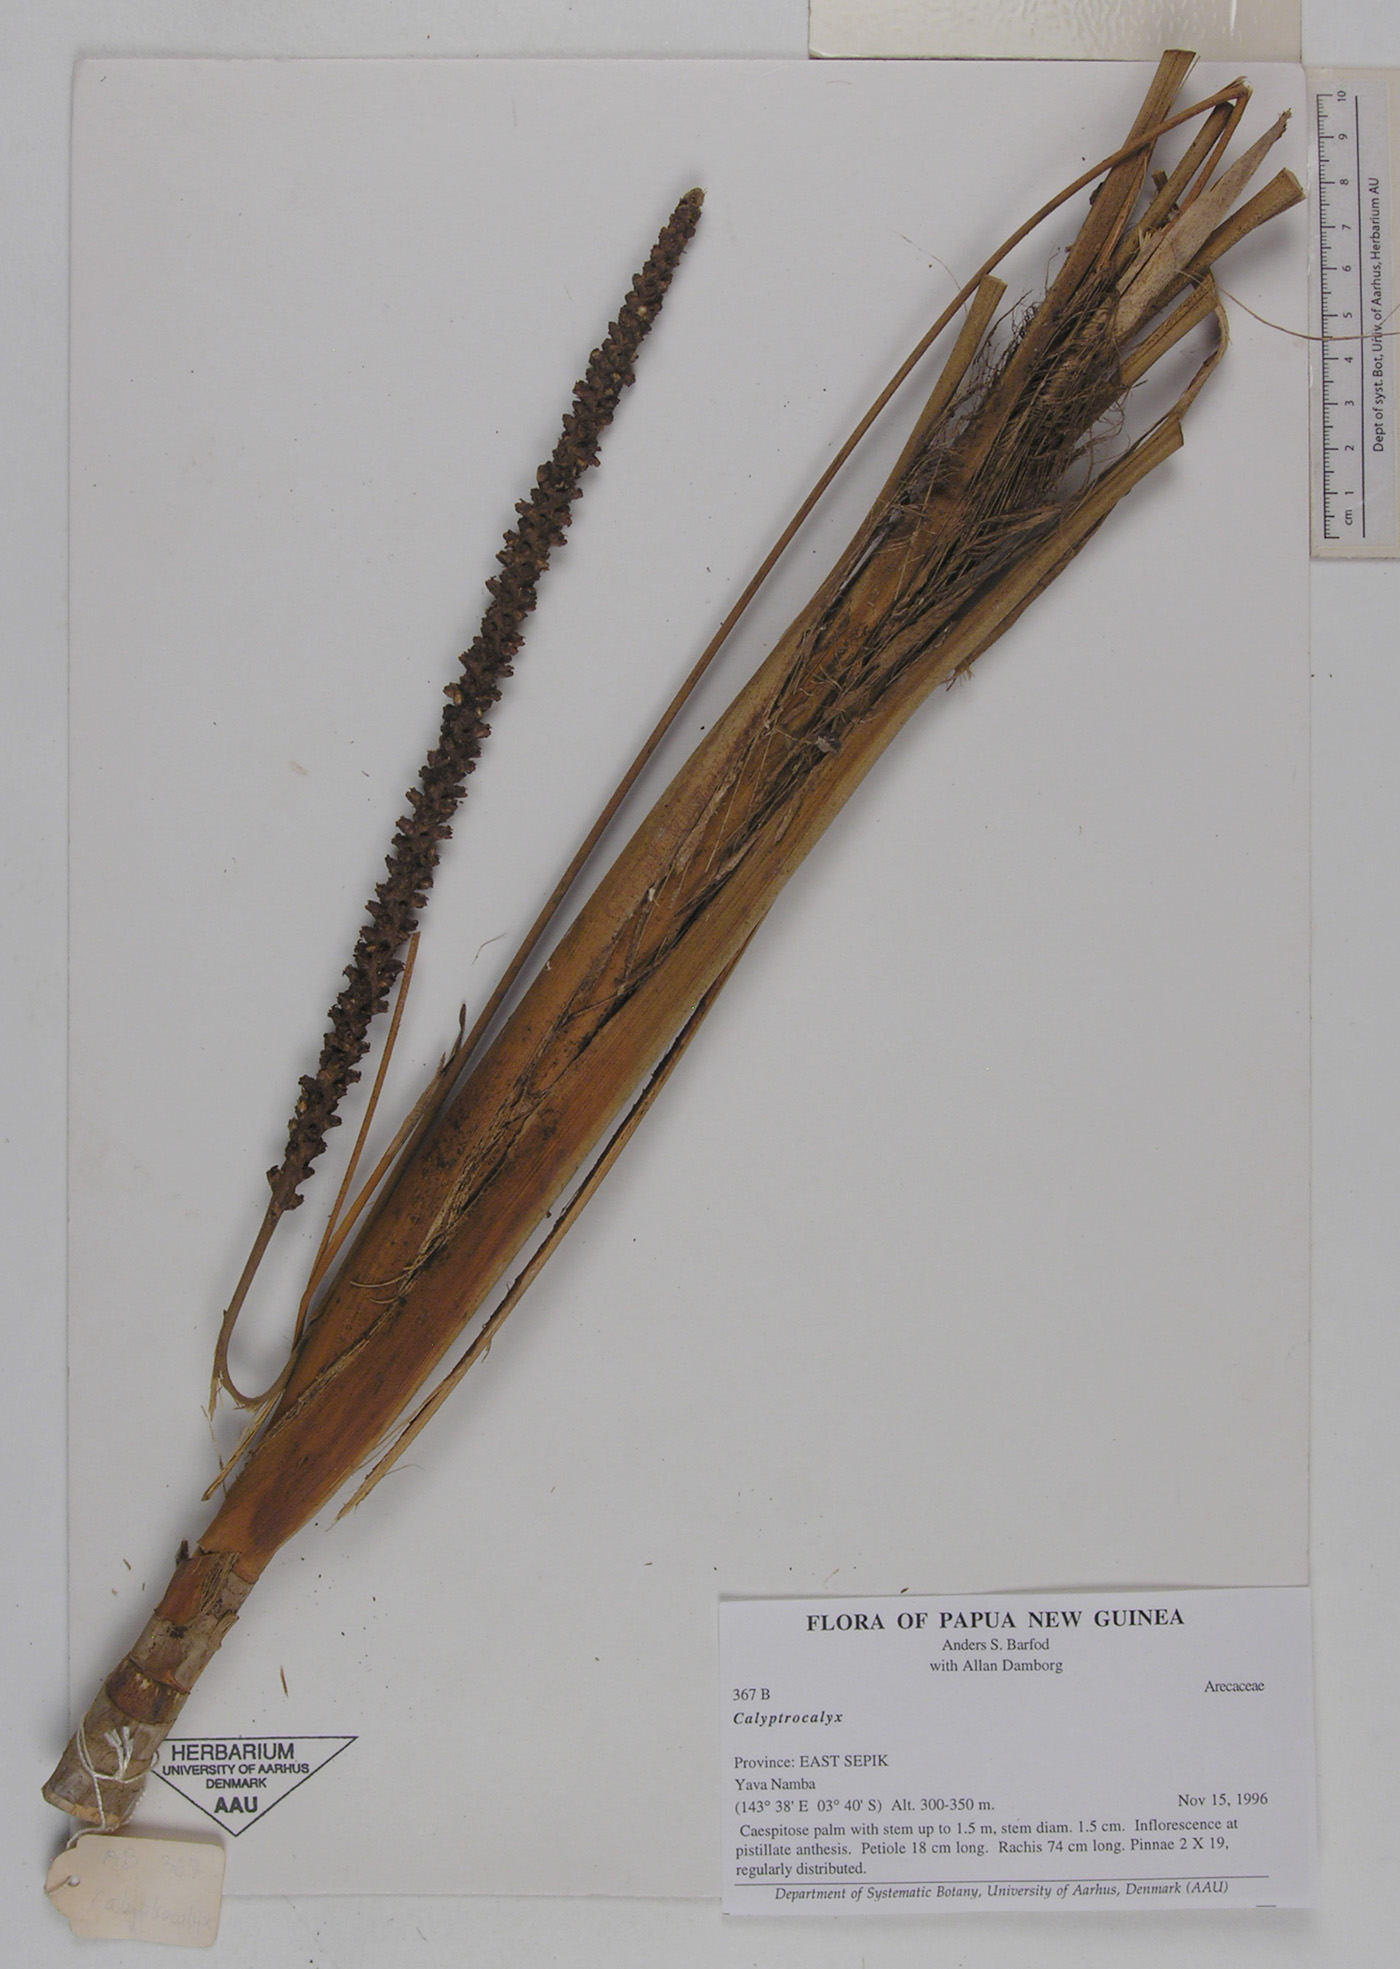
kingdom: Plantae
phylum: Tracheophyta
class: Liliopsida
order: Arecales
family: Arecaceae
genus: Calyptrocalyx
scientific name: Calyptrocalyx
